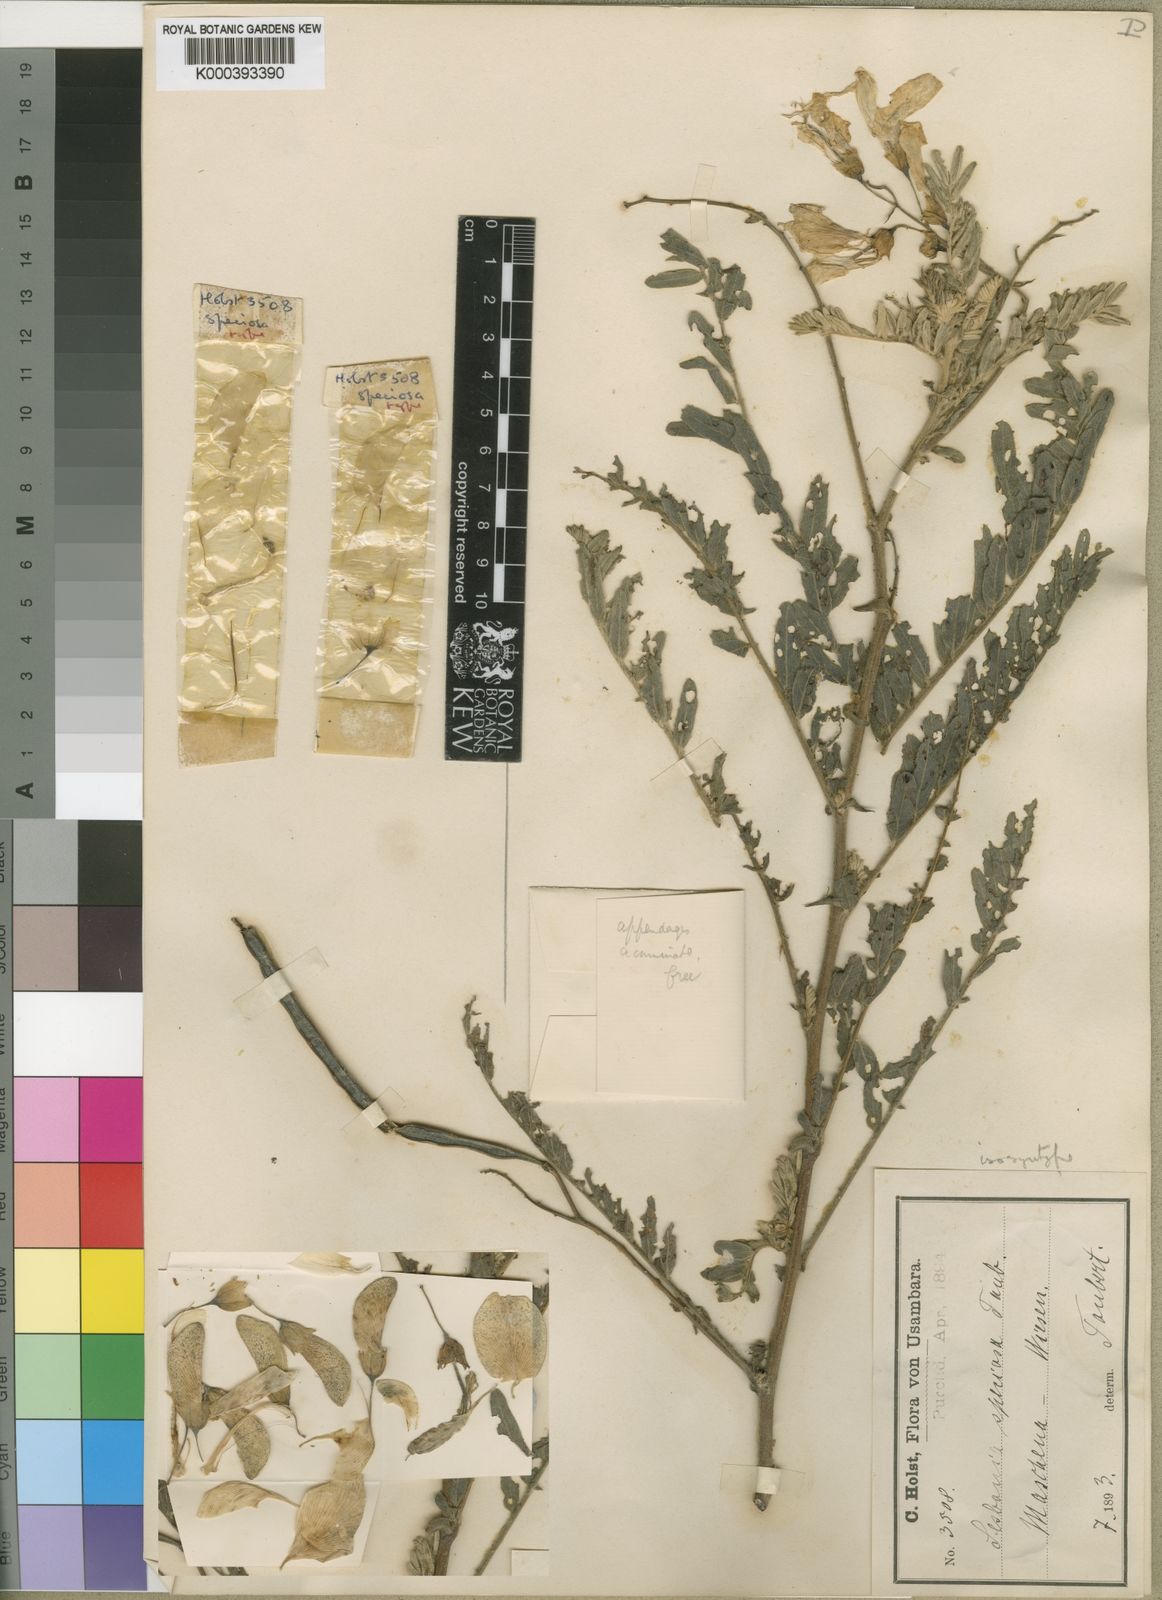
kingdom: Plantae
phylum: Tracheophyta
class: Magnoliopsida
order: Fabales
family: Fabaceae
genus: Sesbania
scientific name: Sesbania
